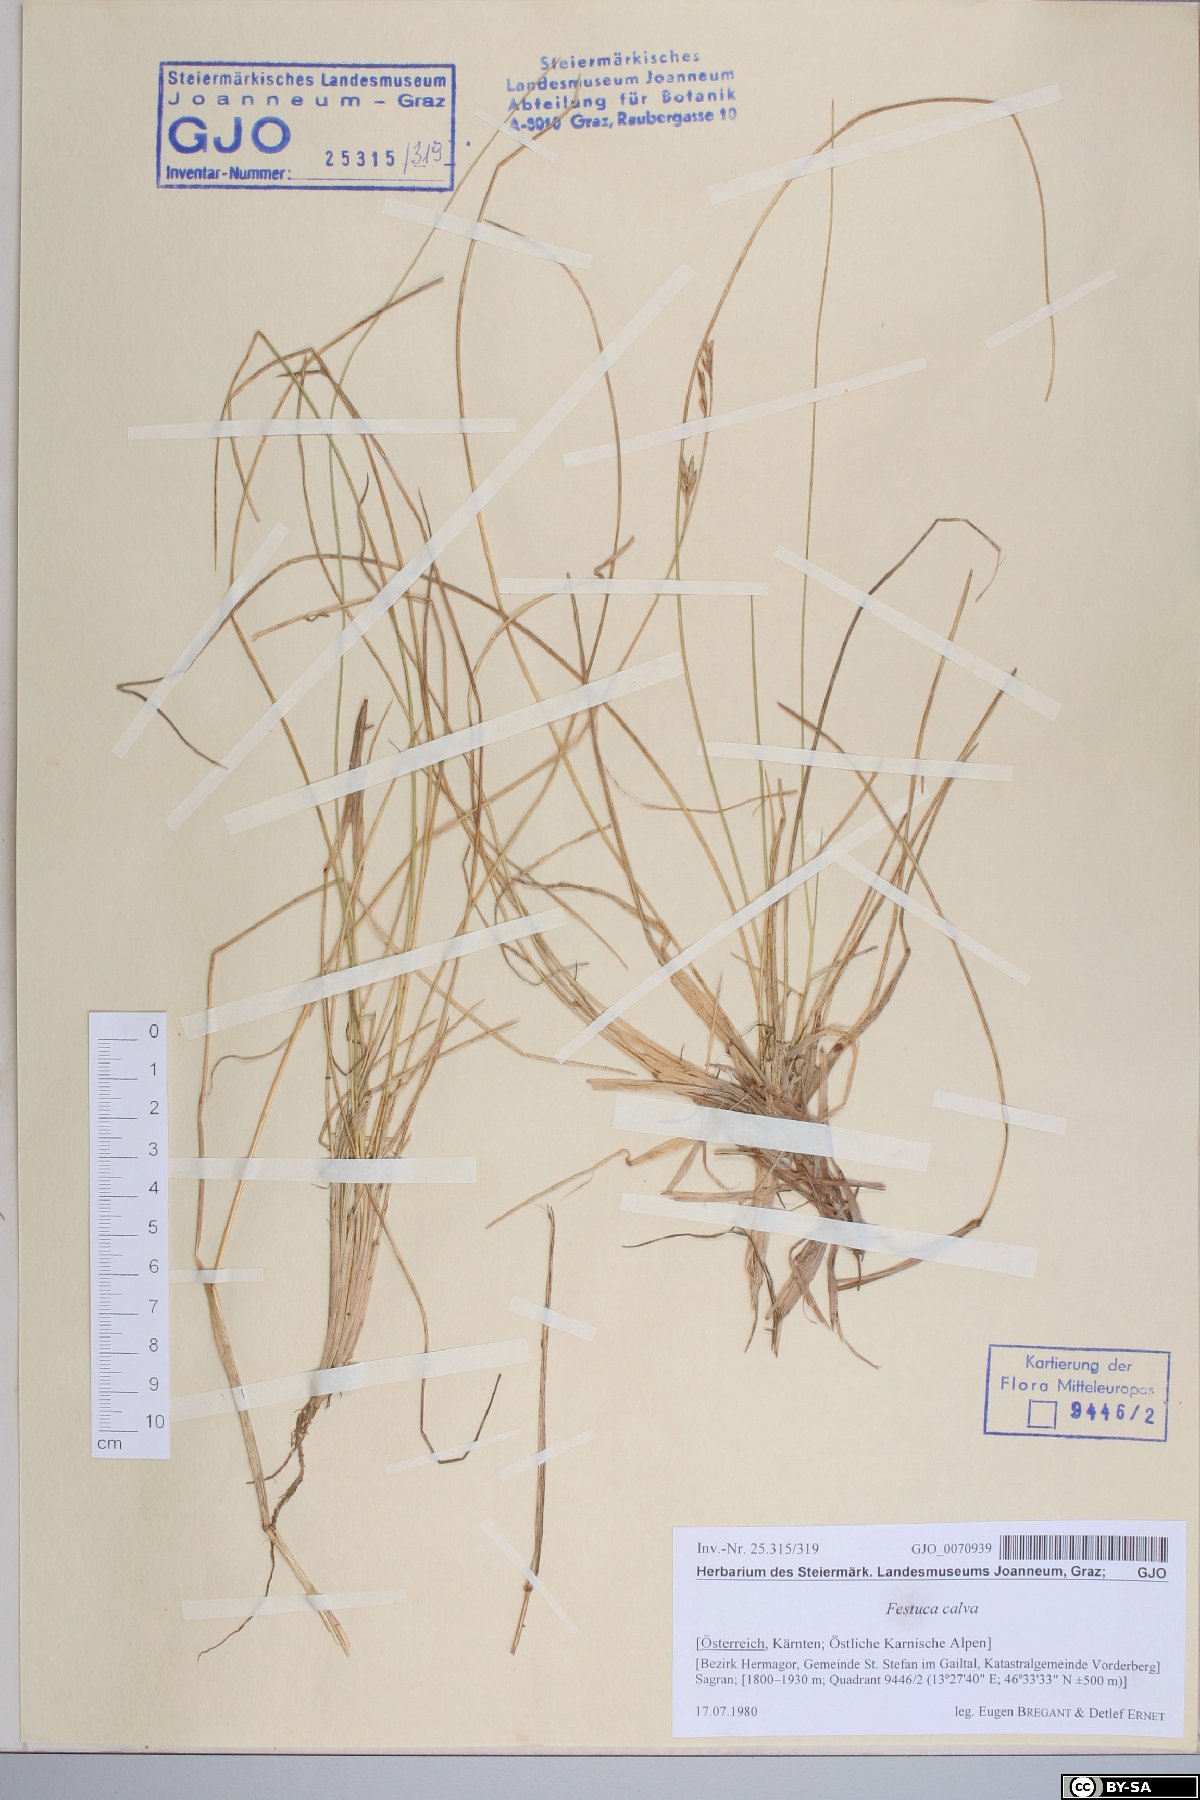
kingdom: Plantae
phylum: Tracheophyta
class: Liliopsida
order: Poales
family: Poaceae
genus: Festuca
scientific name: Festuca calva
